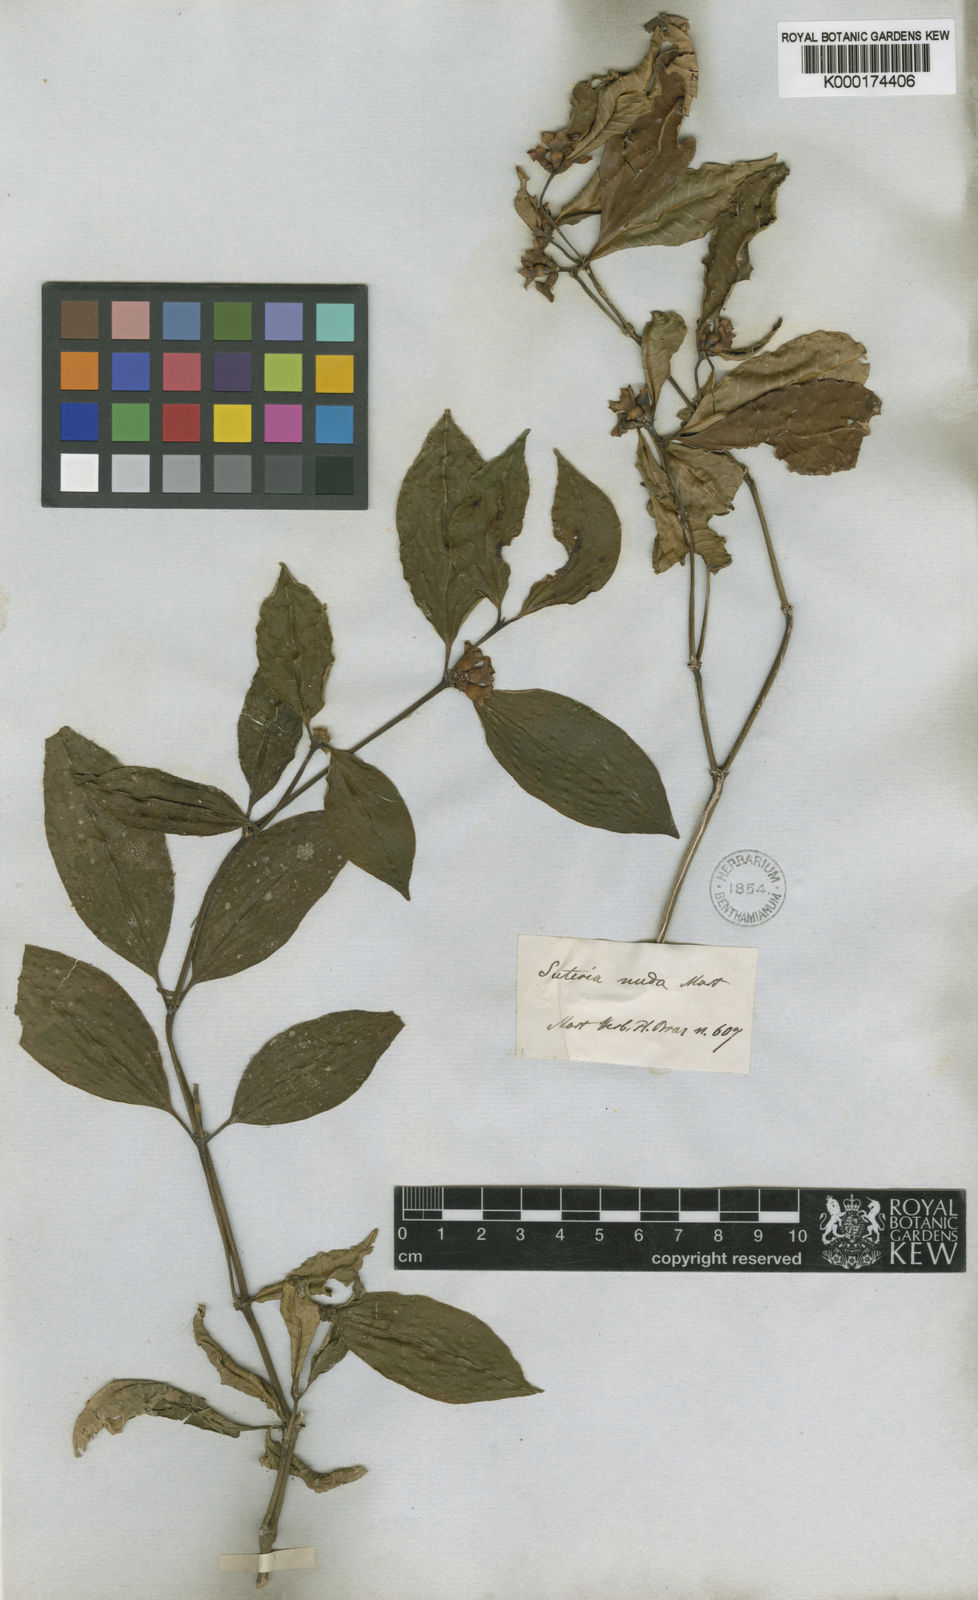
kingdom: Plantae
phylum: Tracheophyta
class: Magnoliopsida
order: Gentianales
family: Rubiaceae
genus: Psychotria
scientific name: Psychotria nuda
